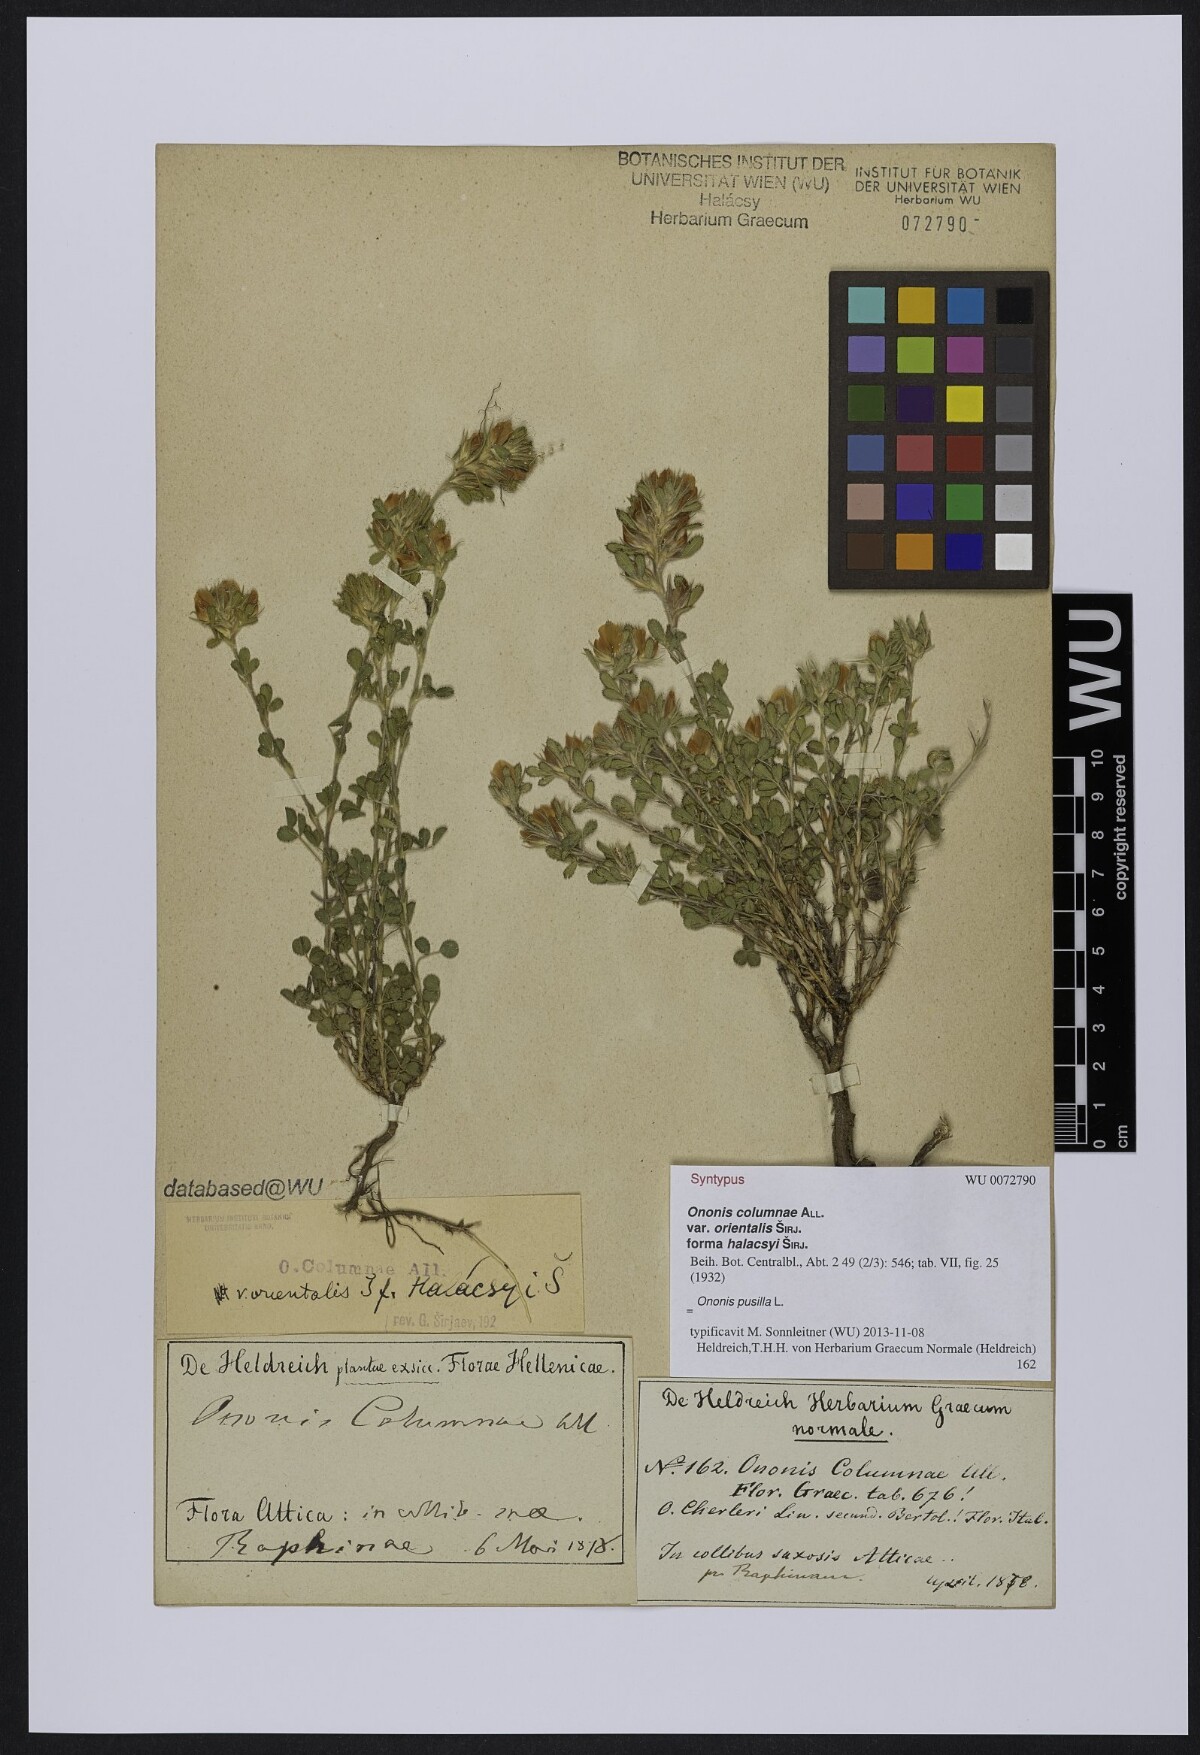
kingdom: Plantae
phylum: Tracheophyta
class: Magnoliopsida
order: Fabales
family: Fabaceae
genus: Ononis
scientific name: Ononis pusilla
